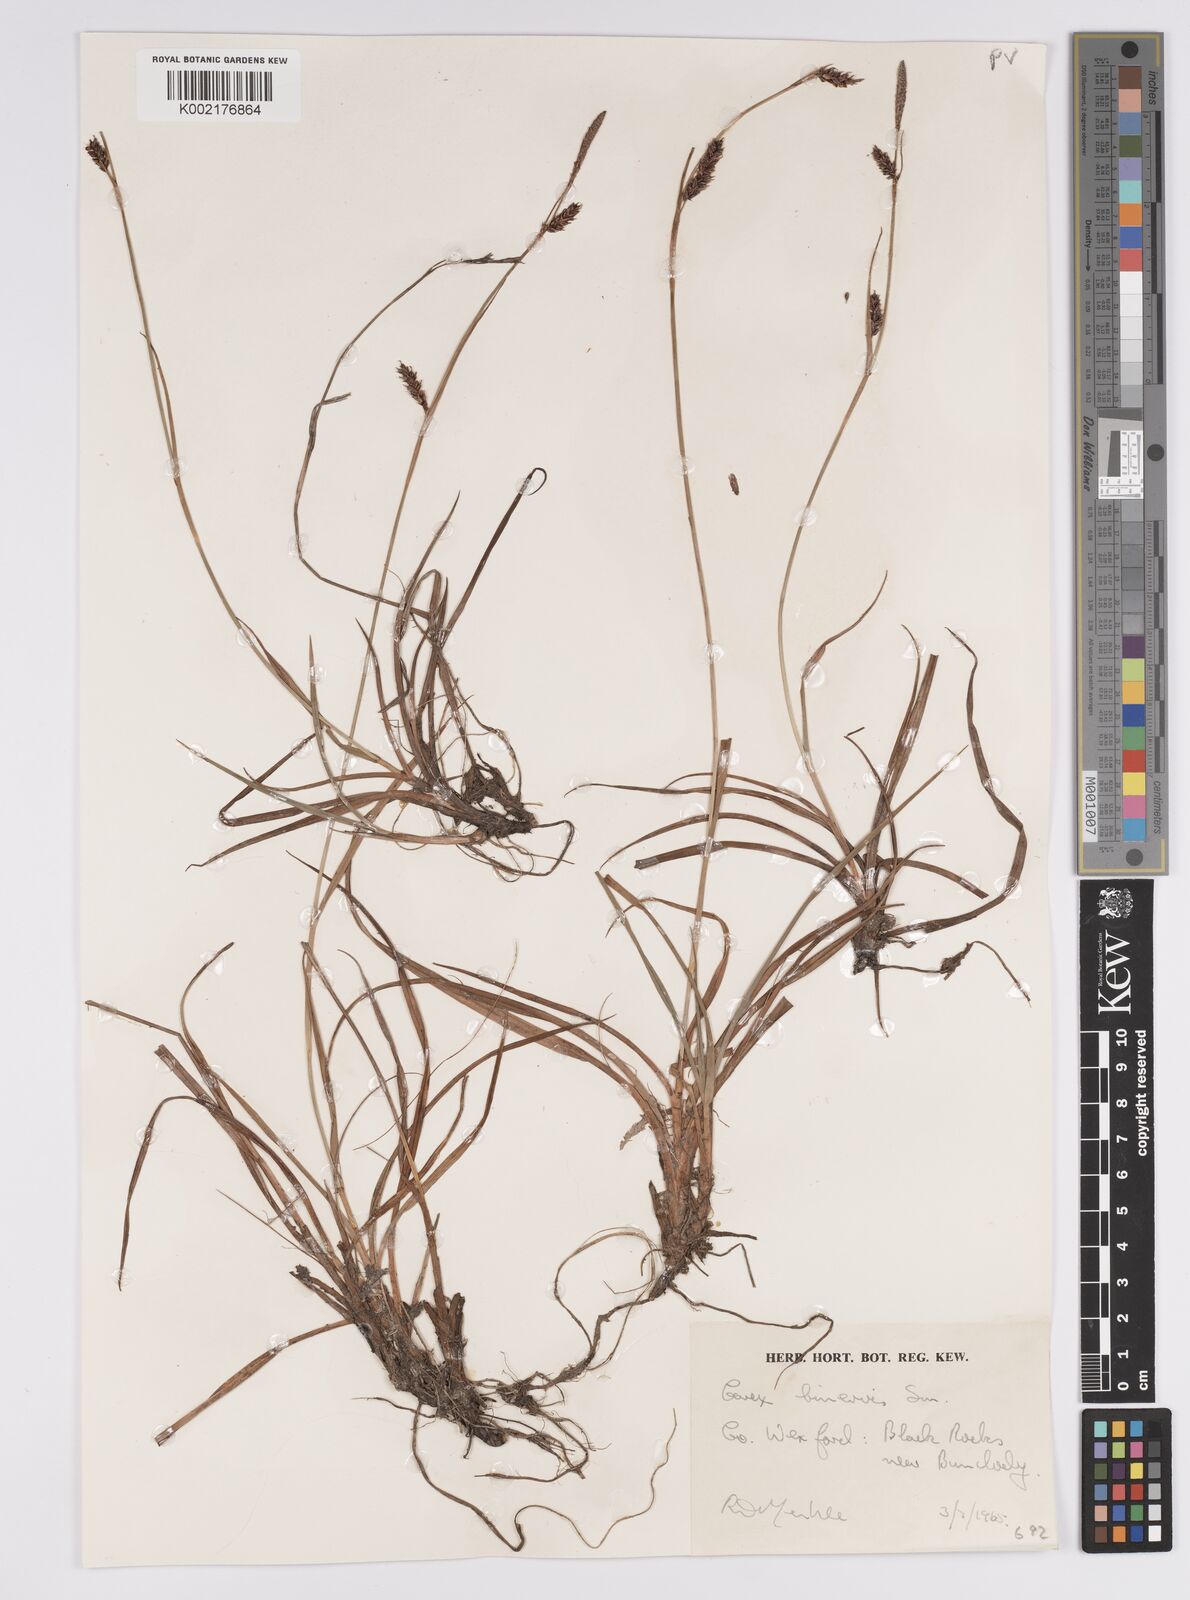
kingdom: Plantae
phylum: Tracheophyta
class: Liliopsida
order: Poales
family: Cyperaceae
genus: Carex
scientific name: Carex binervis
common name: Green-ribbed sedge
